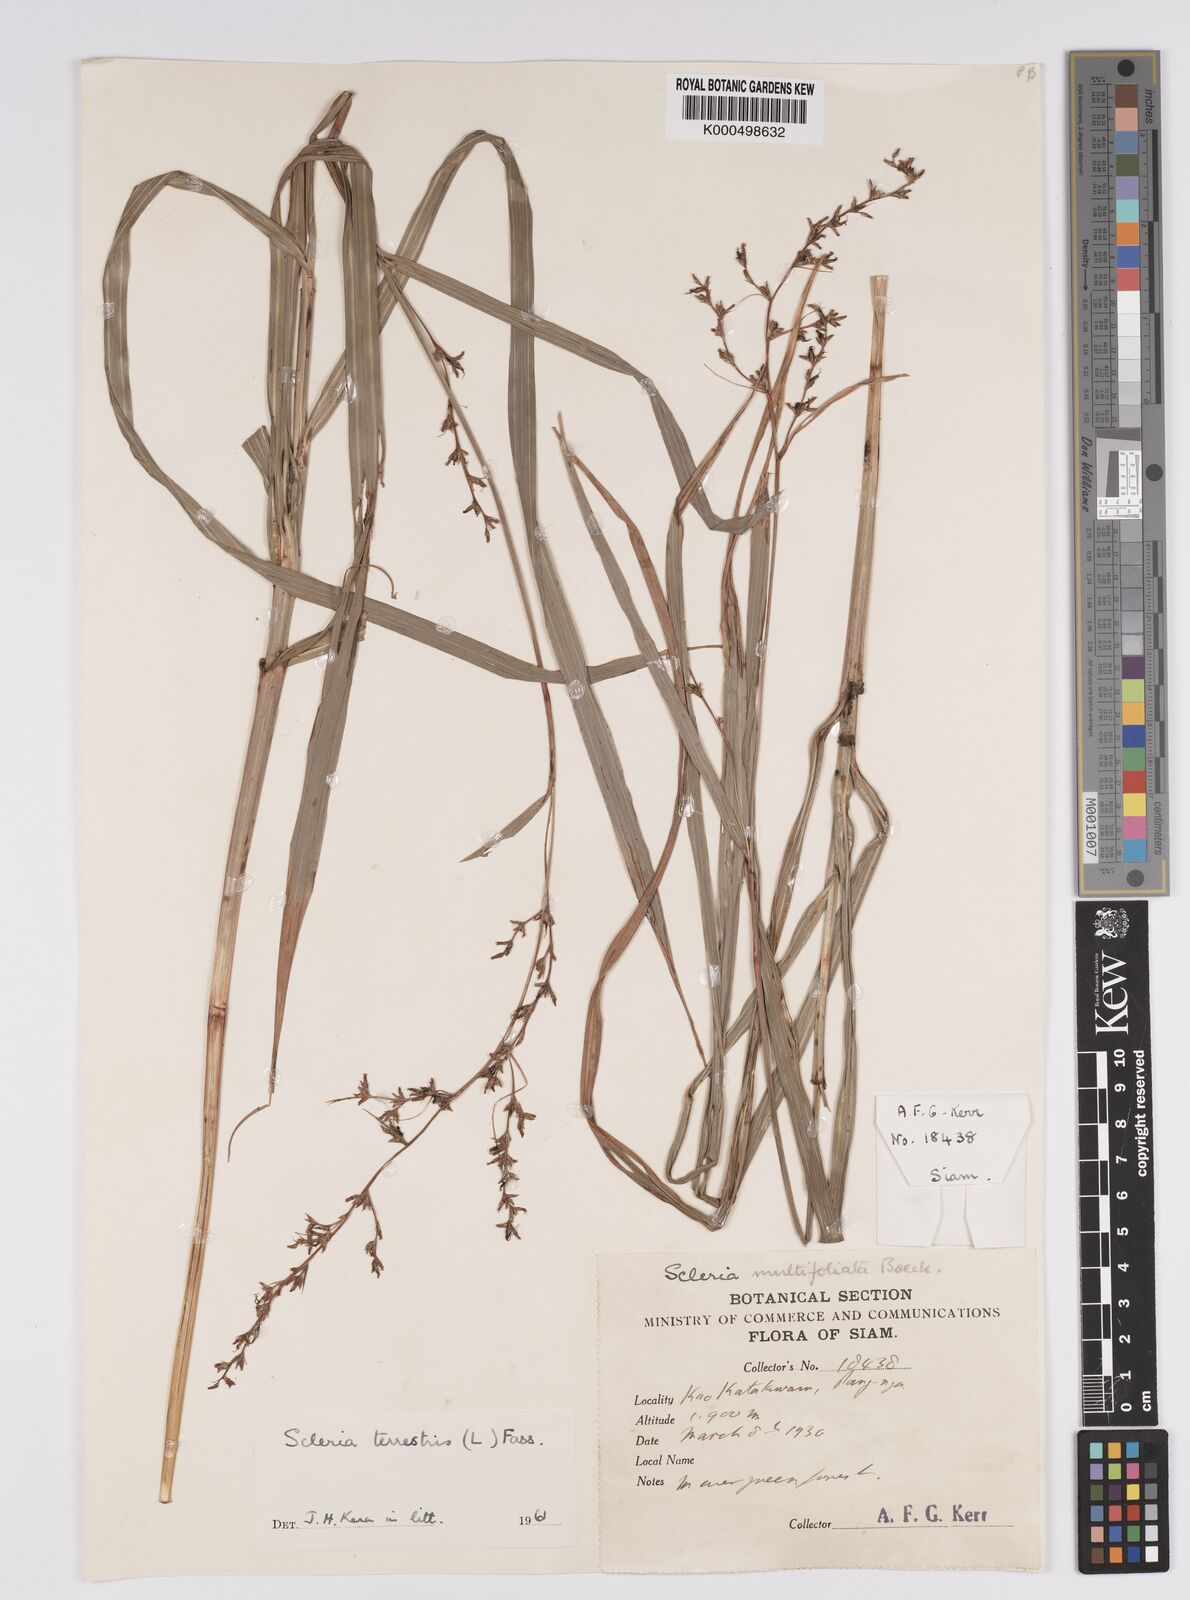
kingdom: Plantae
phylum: Tracheophyta
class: Liliopsida
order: Poales
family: Cyperaceae
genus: Scleria
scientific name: Scleria terrestris
